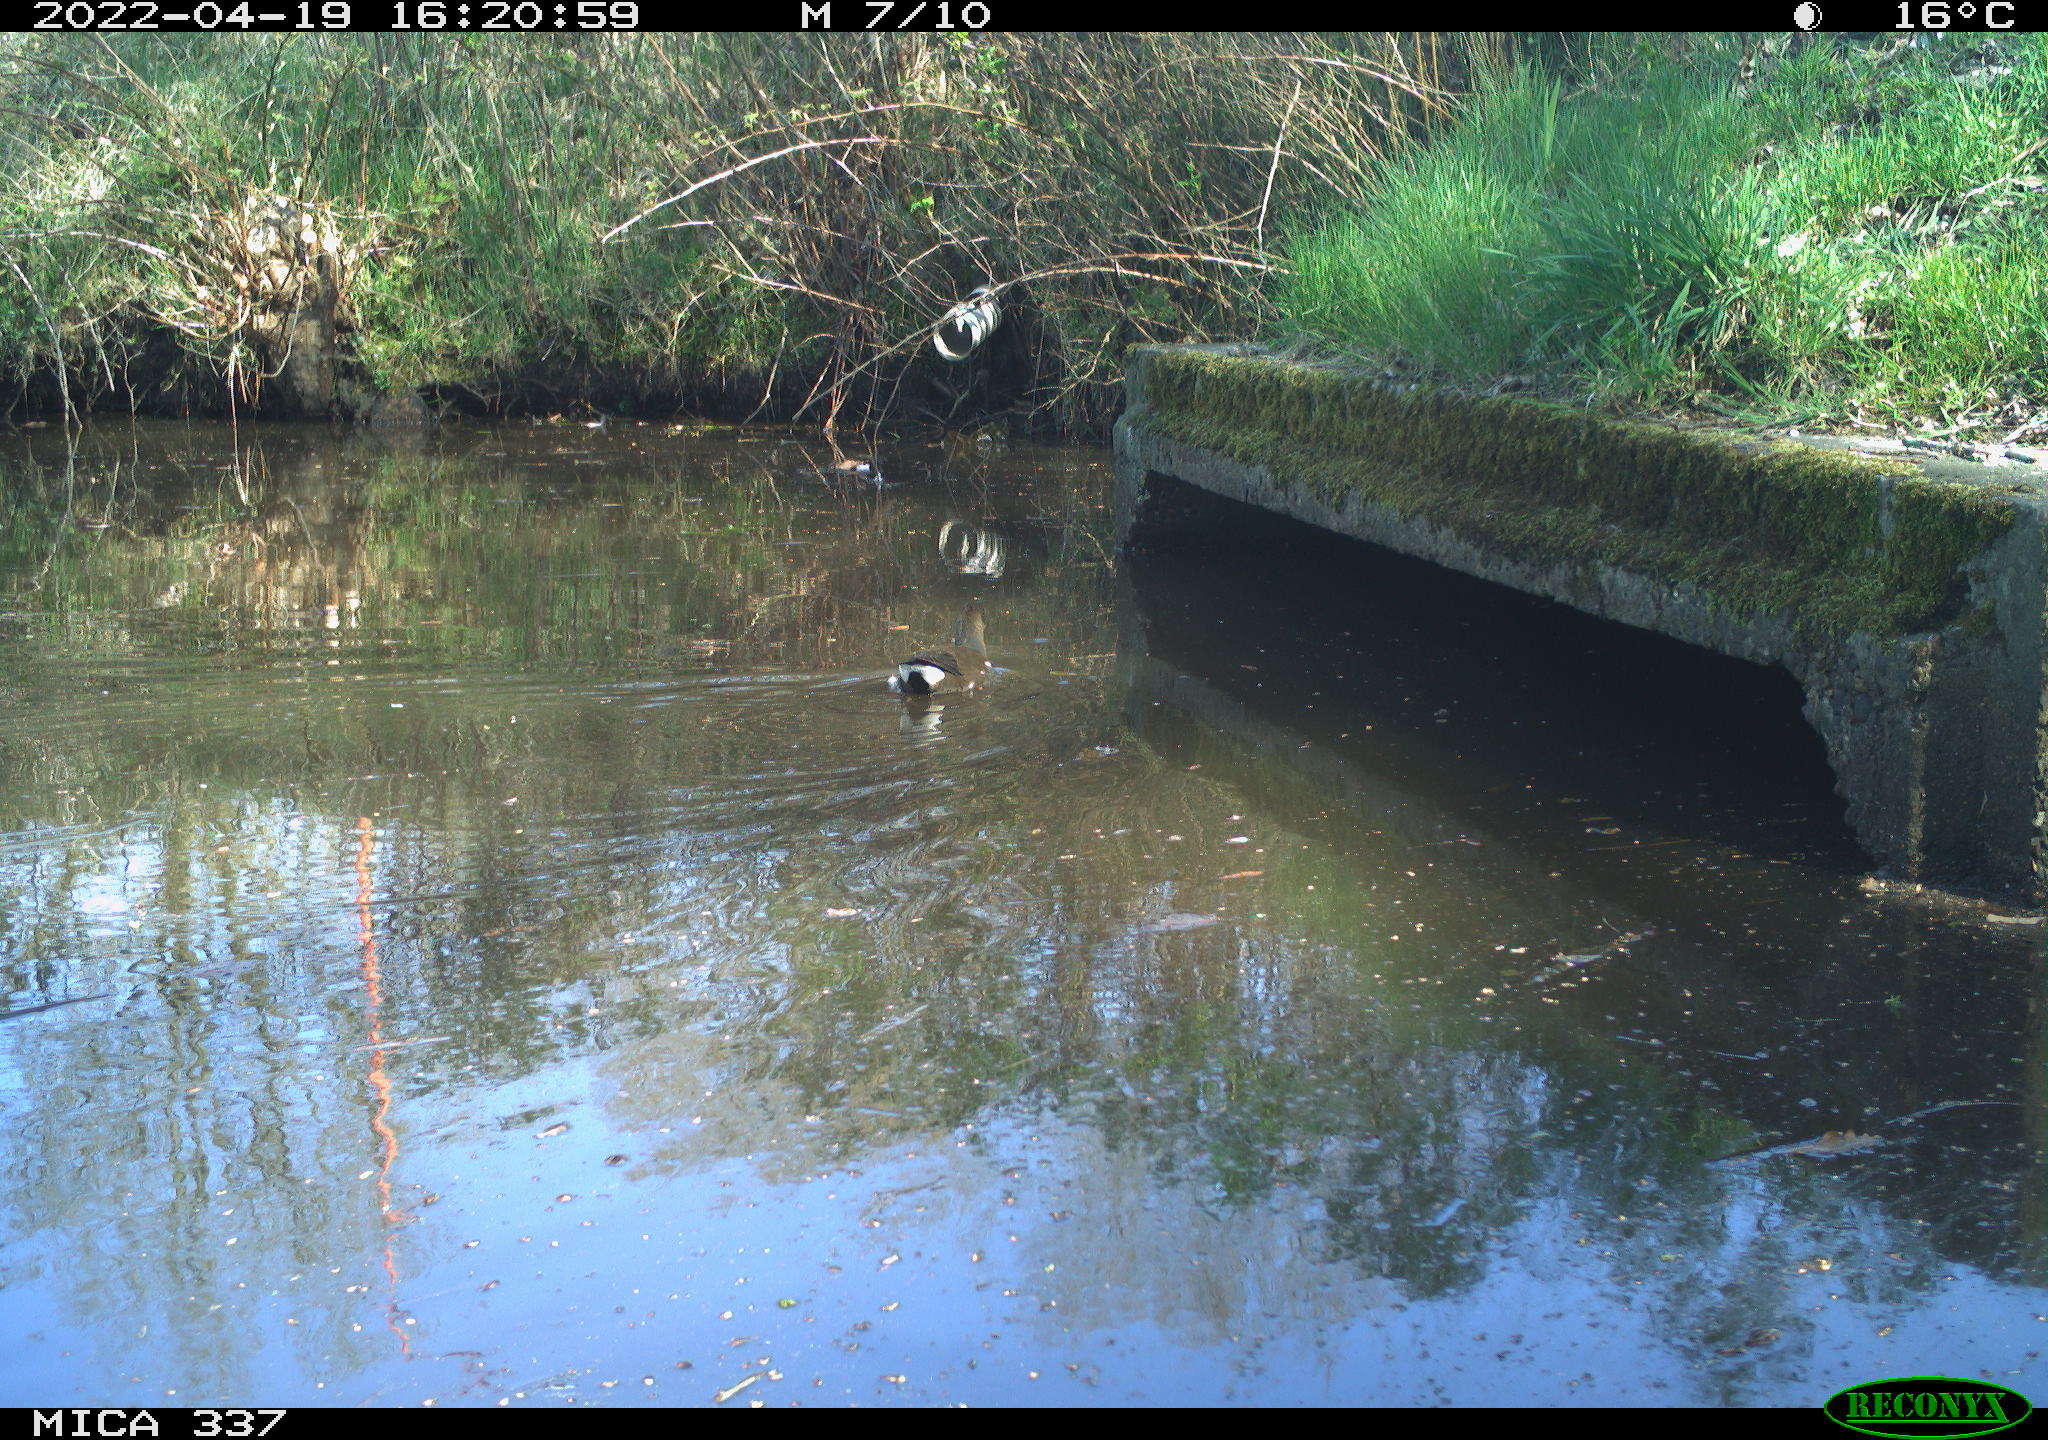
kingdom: Animalia
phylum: Chordata
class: Aves
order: Gruiformes
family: Rallidae
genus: Gallinula
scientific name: Gallinula chloropus
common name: Common moorhen
